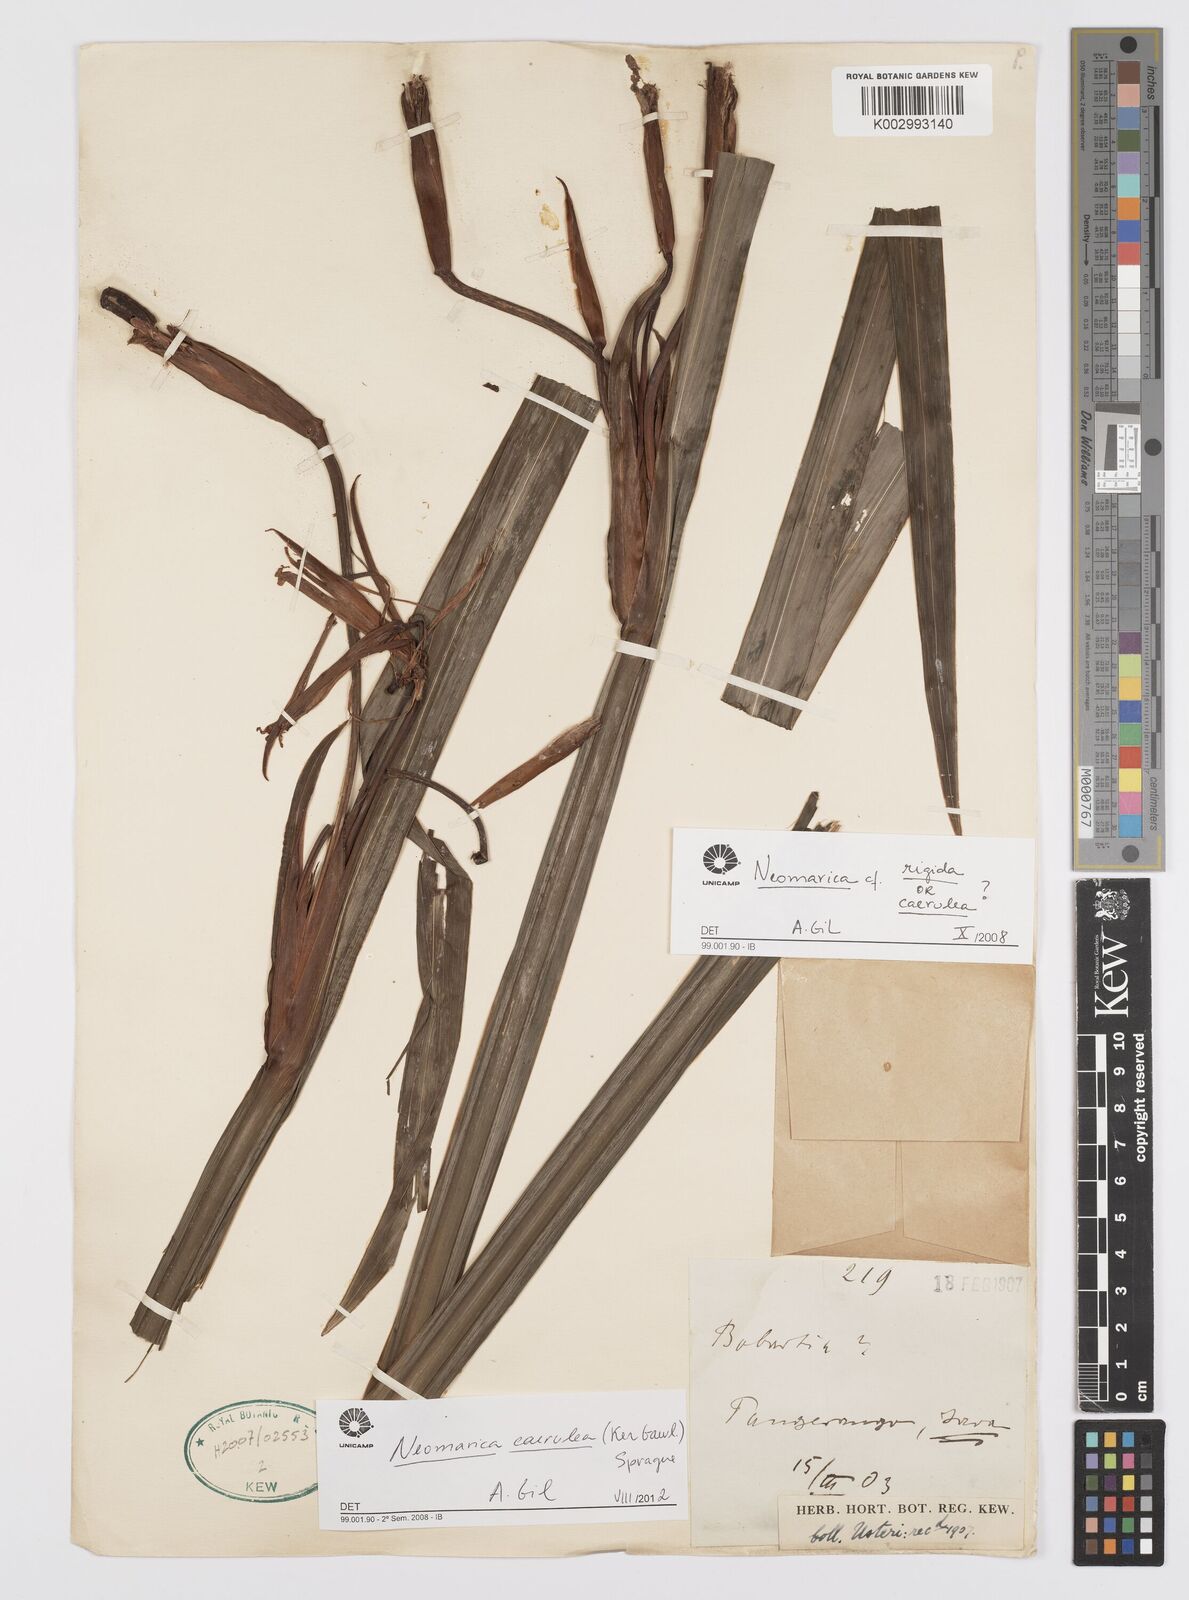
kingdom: Plantae
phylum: Tracheophyta
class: Liliopsida
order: Asparagales
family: Iridaceae
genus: Trimezia
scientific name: Trimezia coerulea
